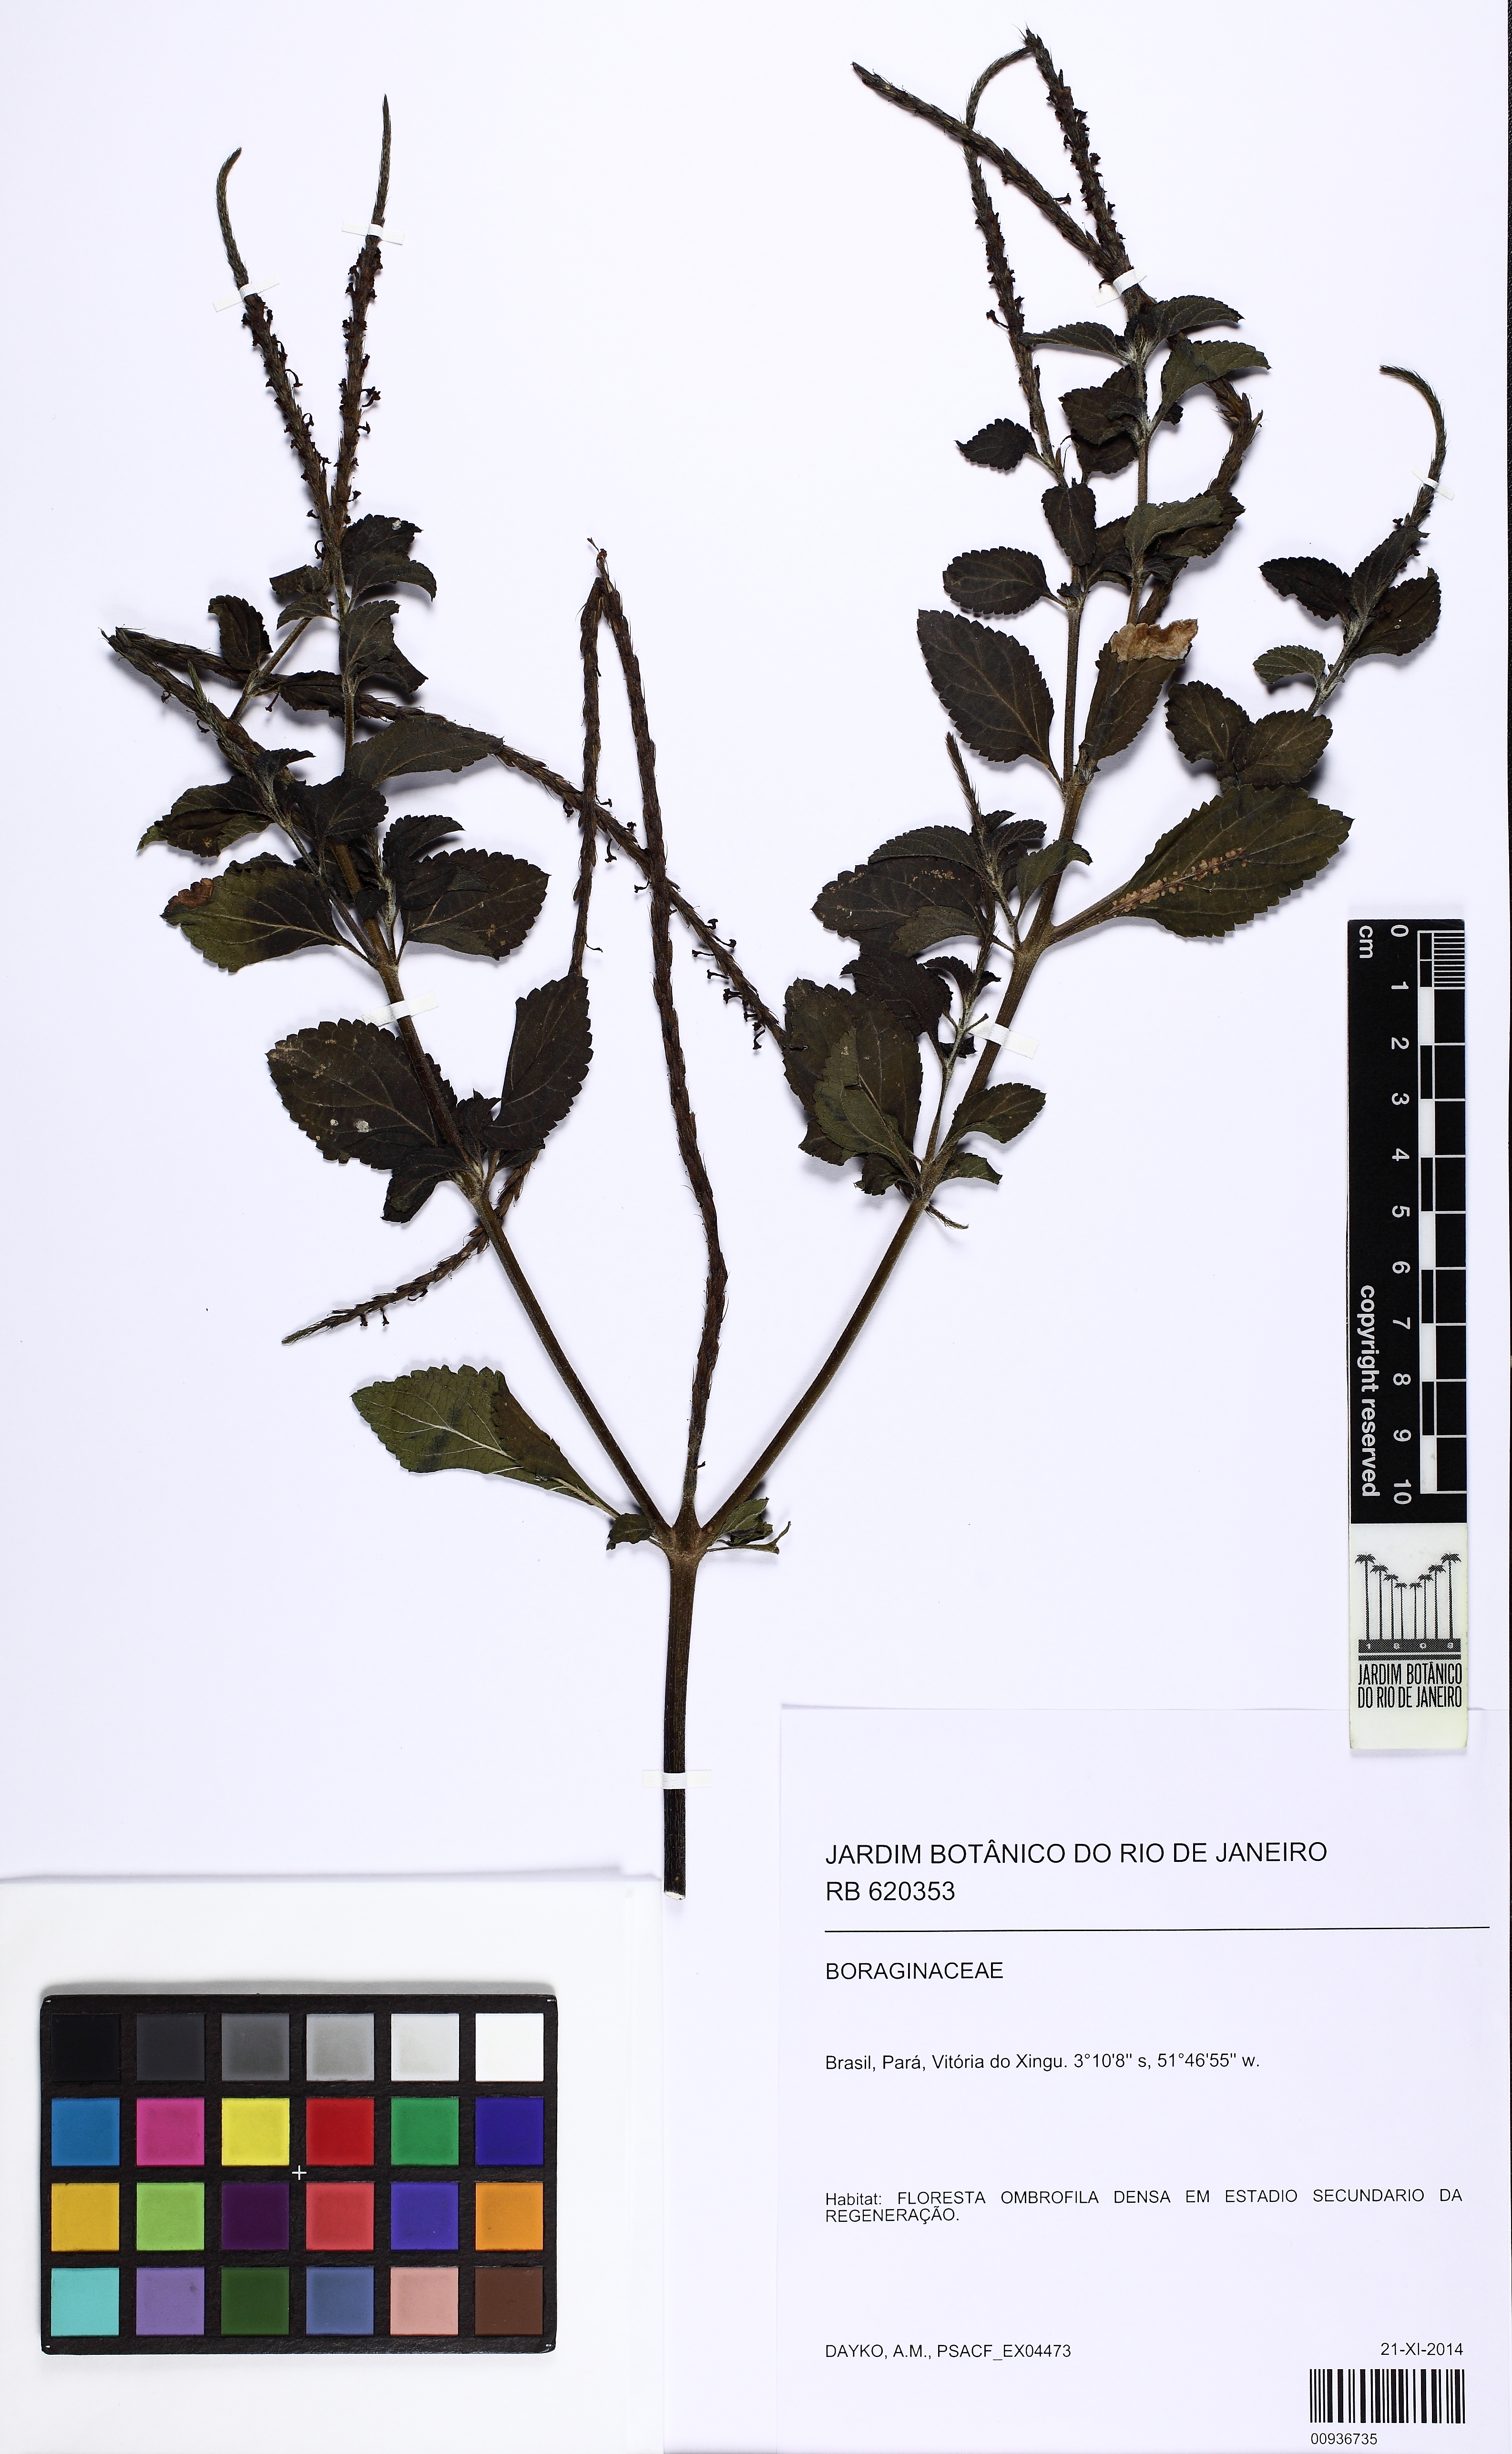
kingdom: Plantae
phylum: Tracheophyta
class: Magnoliopsida
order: Lamiales
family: Verbenaceae
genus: Stachytarpheta
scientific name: Stachytarpheta cayennensis
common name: Cayenne porterweed
